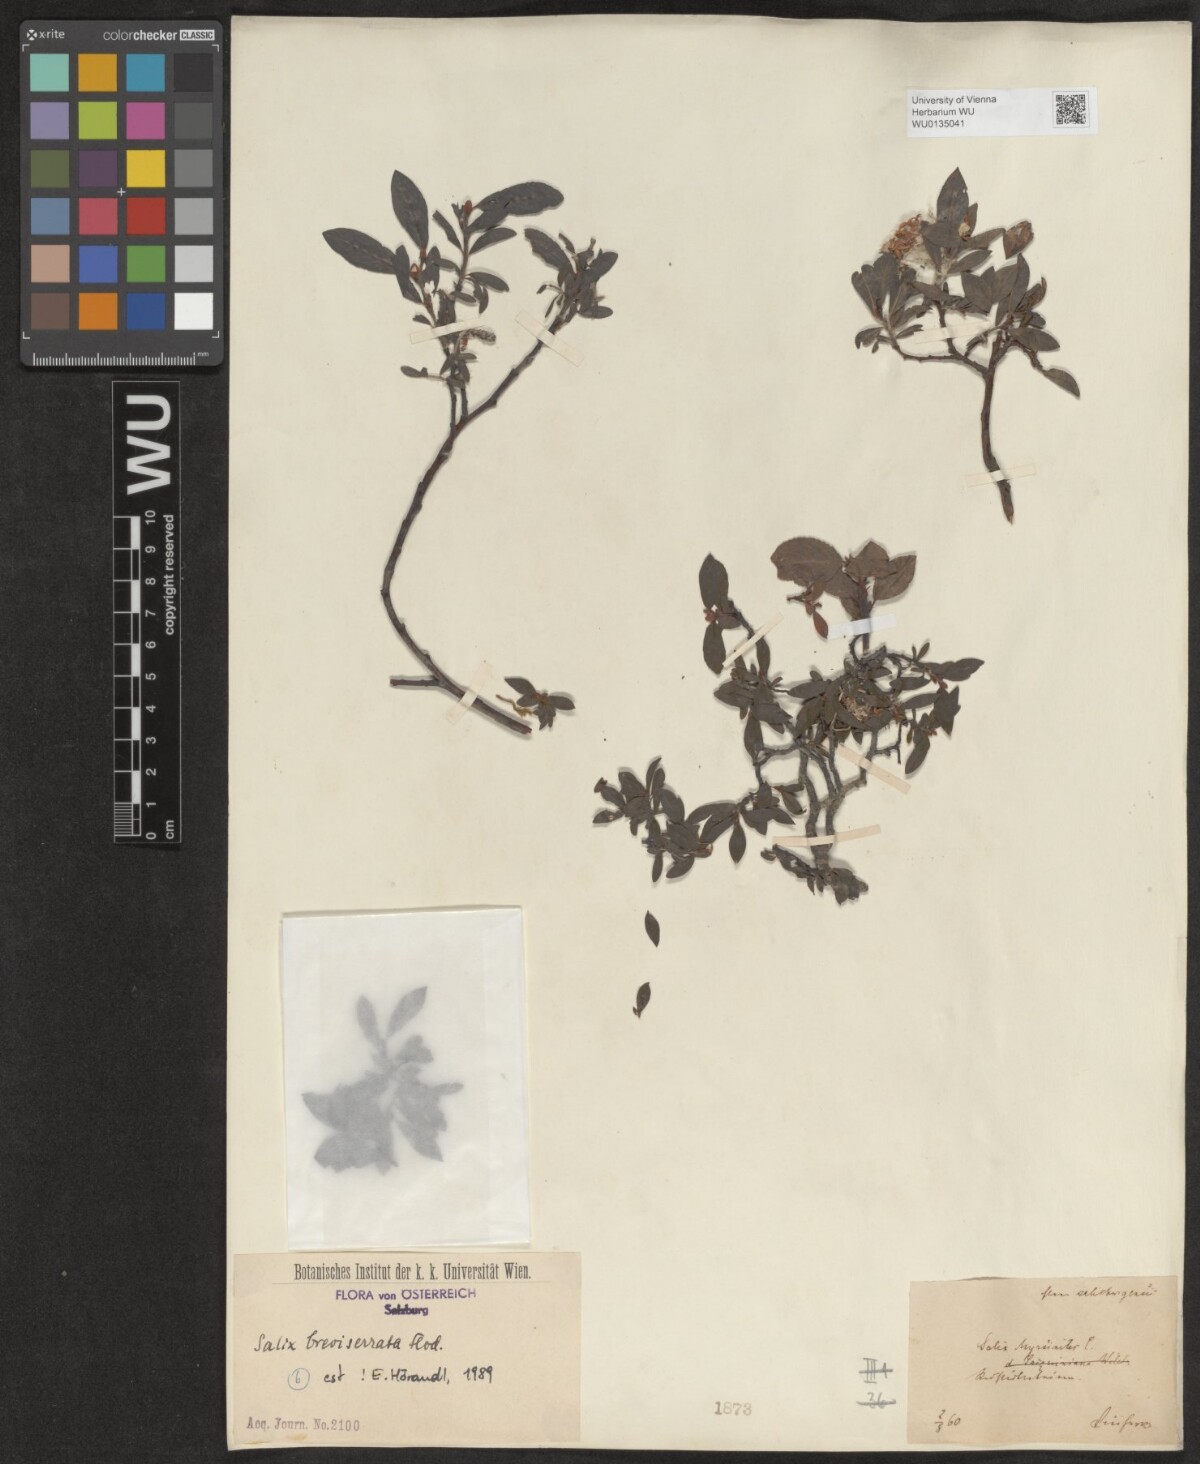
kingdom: Plantae
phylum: Tracheophyta
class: Magnoliopsida
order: Malpighiales
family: Salicaceae
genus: Salix
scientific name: Salix breviserrata
